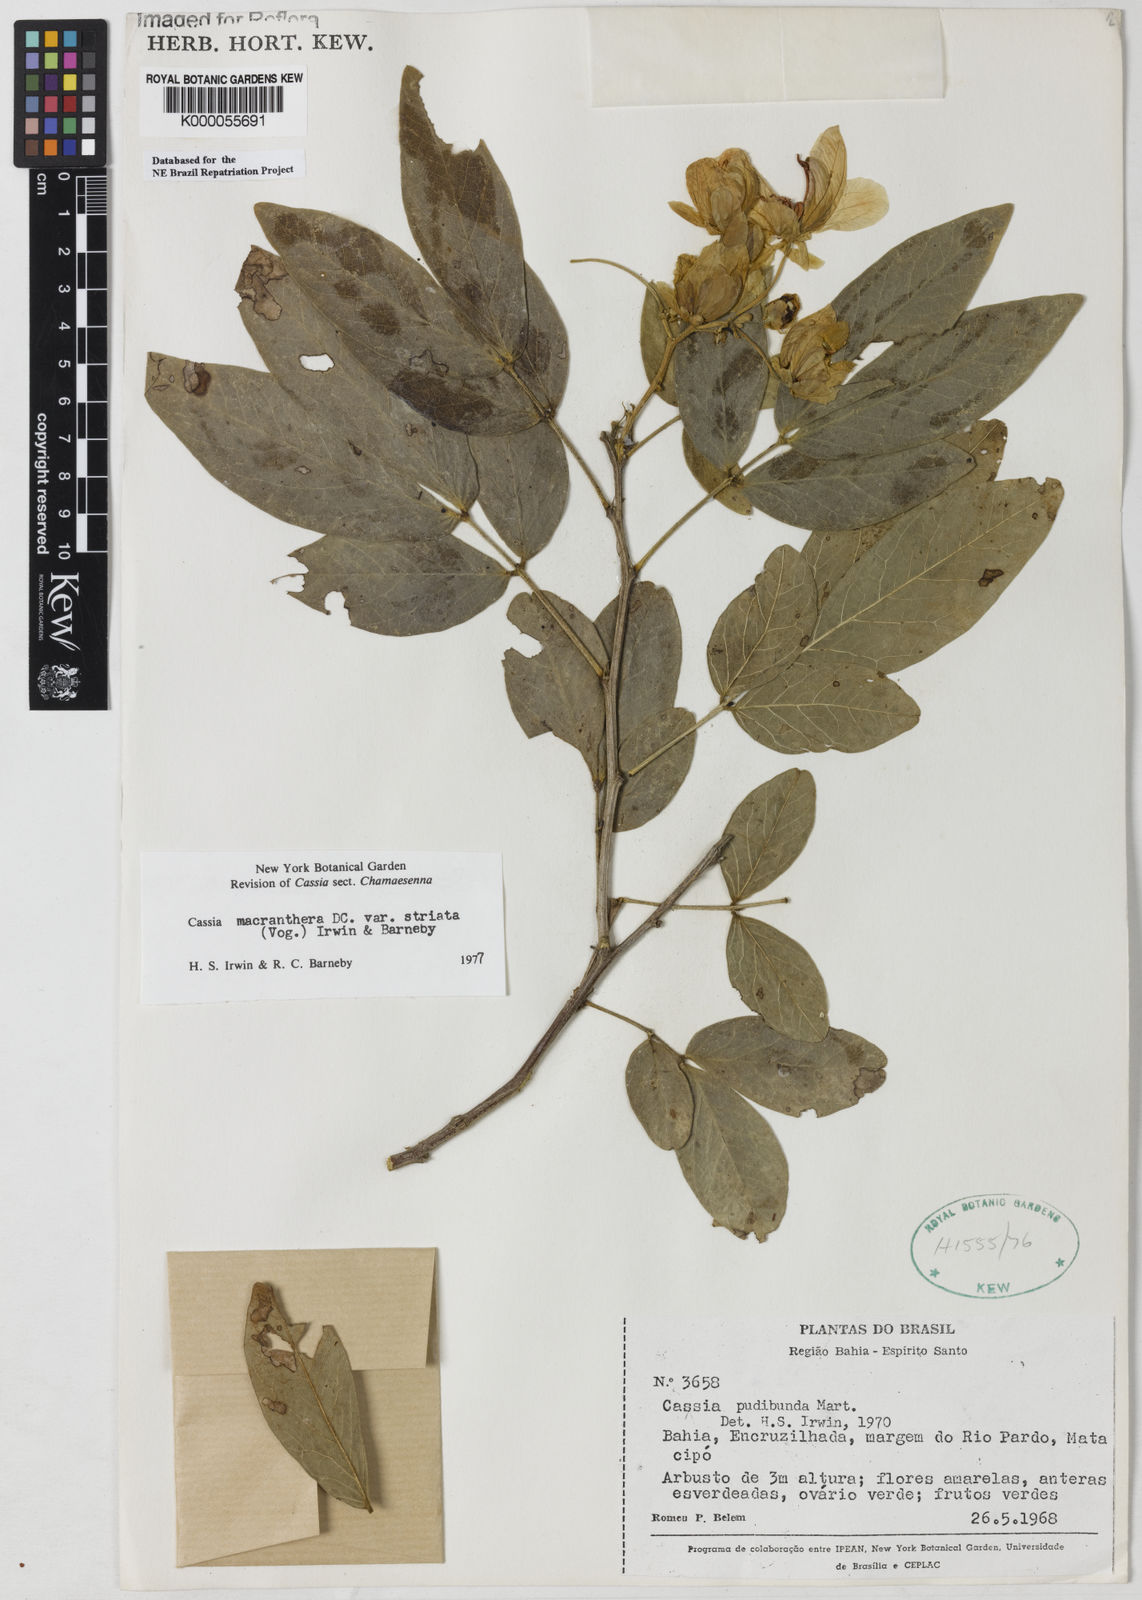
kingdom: Plantae
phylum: Tracheophyta
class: Magnoliopsida
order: Fabales
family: Fabaceae
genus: Senna
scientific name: Senna macranthera
